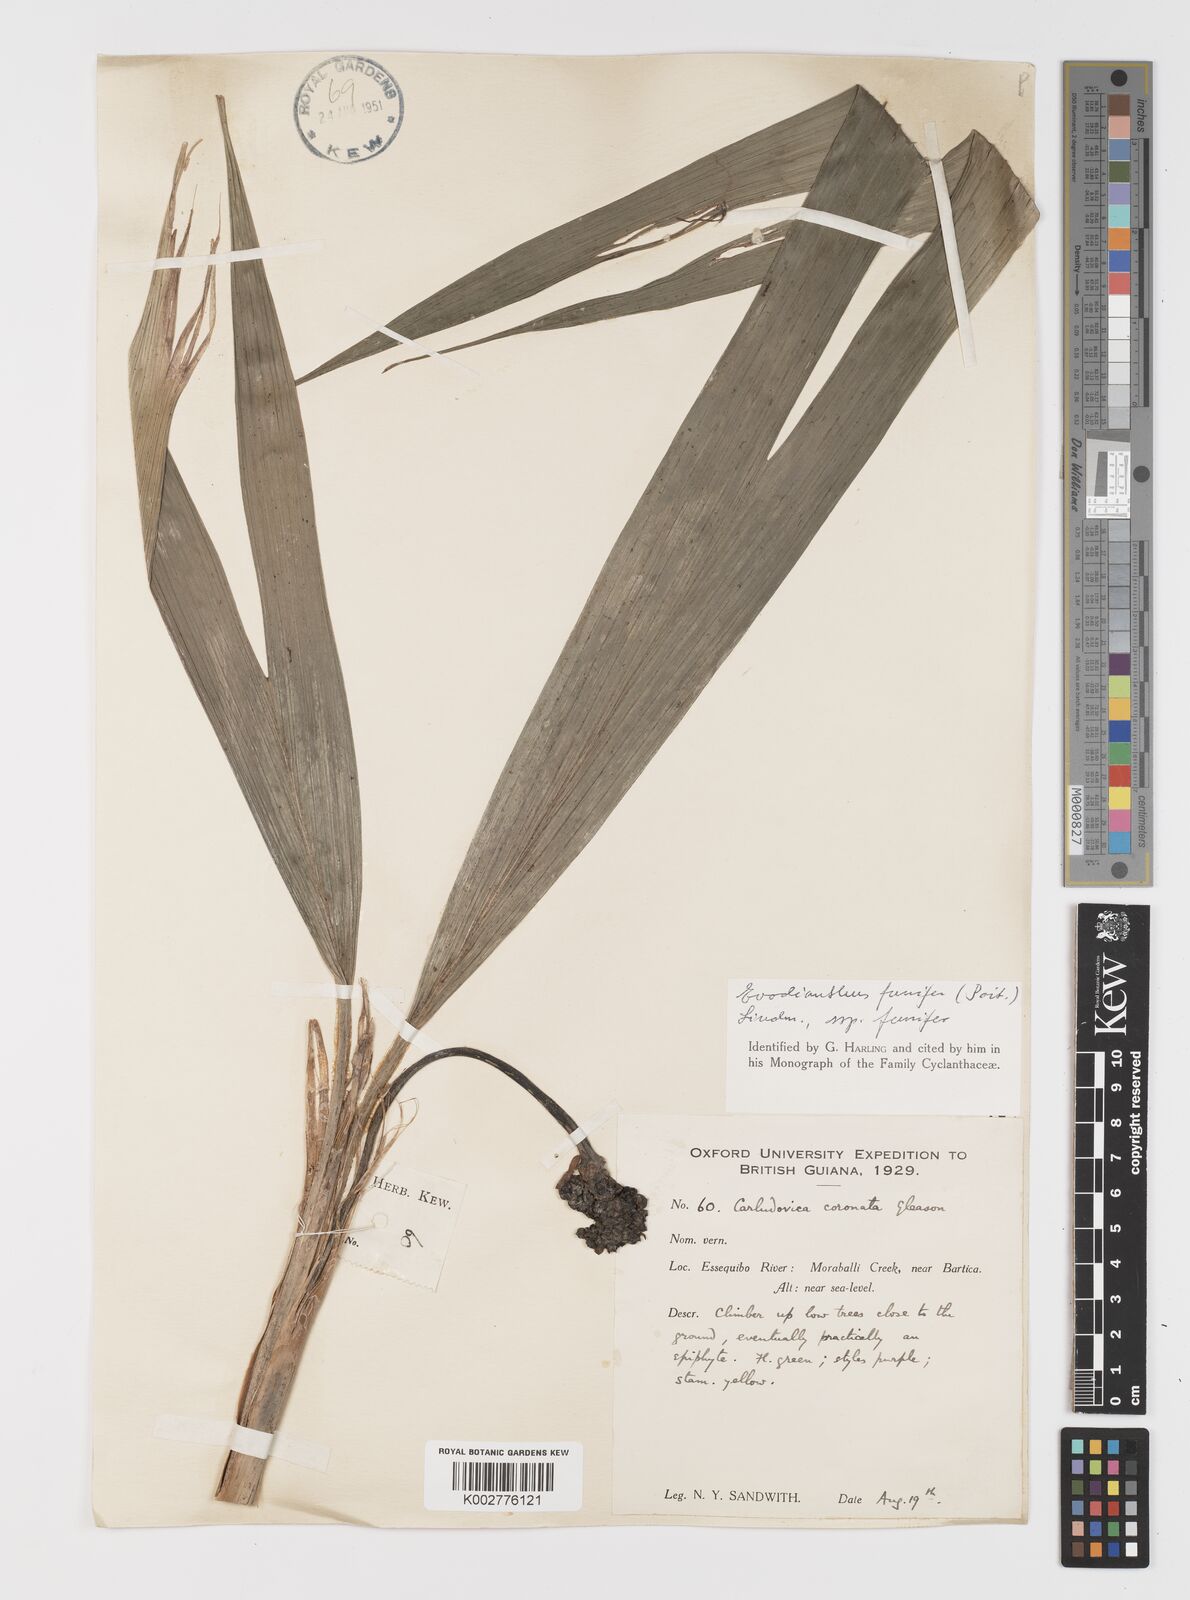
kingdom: Plantae
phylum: Tracheophyta
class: Liliopsida
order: Pandanales
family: Cyclanthaceae
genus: Evodianthus
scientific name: Evodianthus funifer
